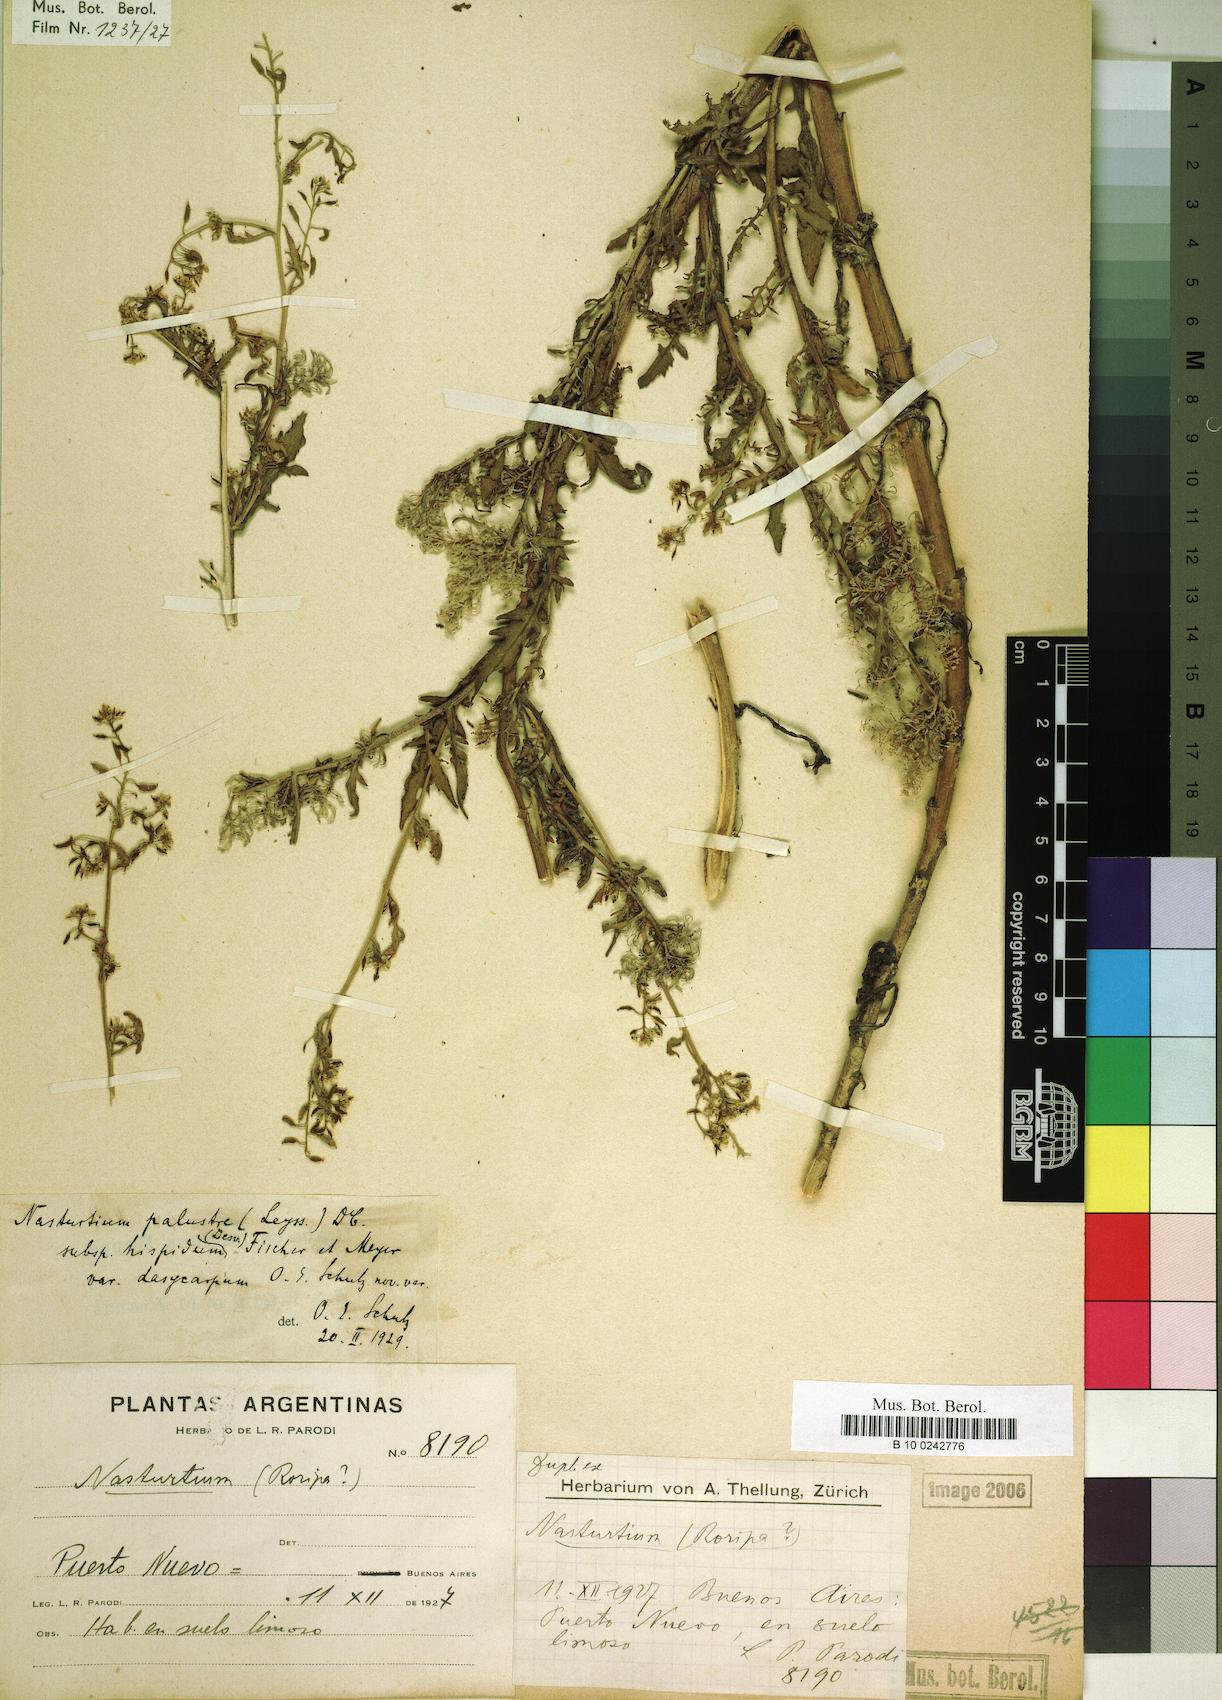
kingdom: Plantae
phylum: Tracheophyta
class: Magnoliopsida
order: Brassicales
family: Brassicaceae
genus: Rorippa
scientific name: Rorippa palustris
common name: Marsh yellow-cress
